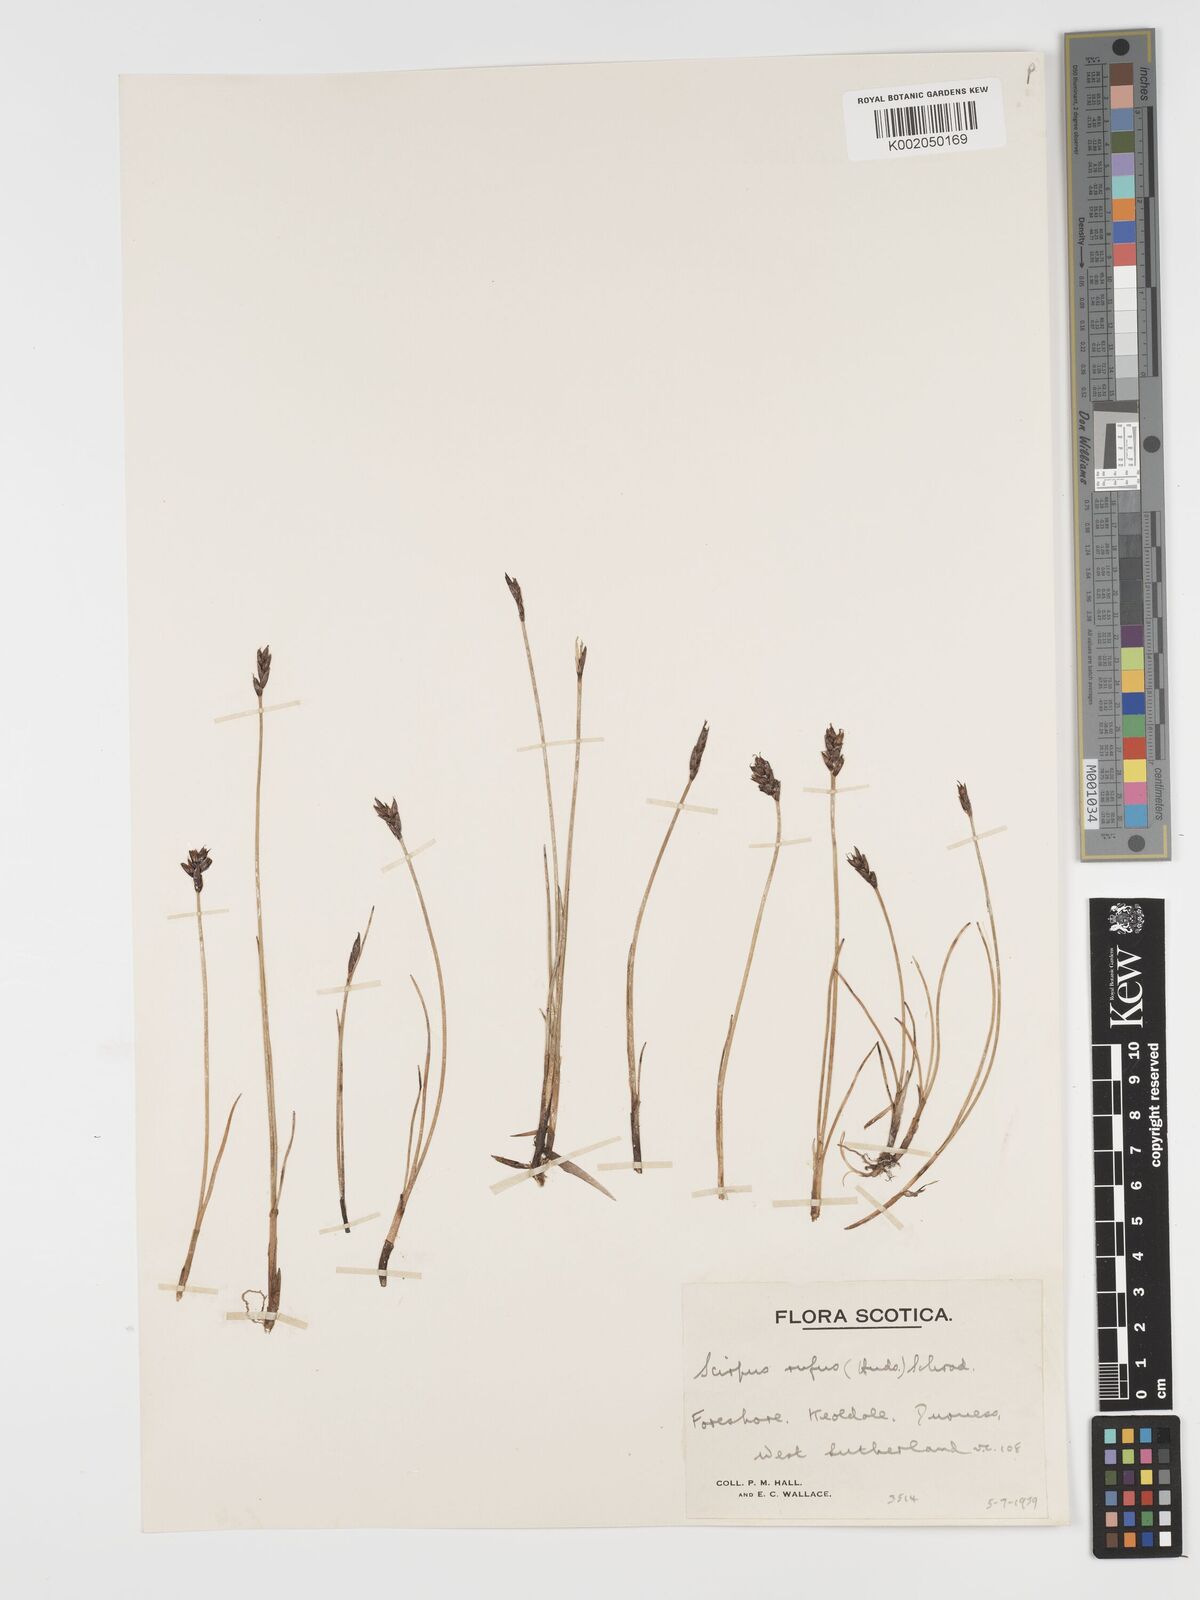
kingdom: Plantae
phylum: Tracheophyta
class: Liliopsida
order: Poales
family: Cyperaceae
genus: Blysmus
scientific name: Blysmus rufus
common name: Saltmarsh flat-sedge
